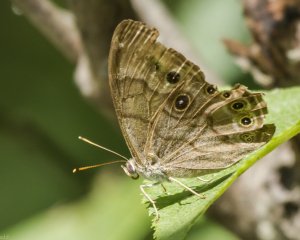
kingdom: Animalia
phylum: Arthropoda
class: Insecta
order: Lepidoptera
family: Nymphalidae
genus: Lethe
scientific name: Lethe anthedon
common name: Northern Pearly-Eye
